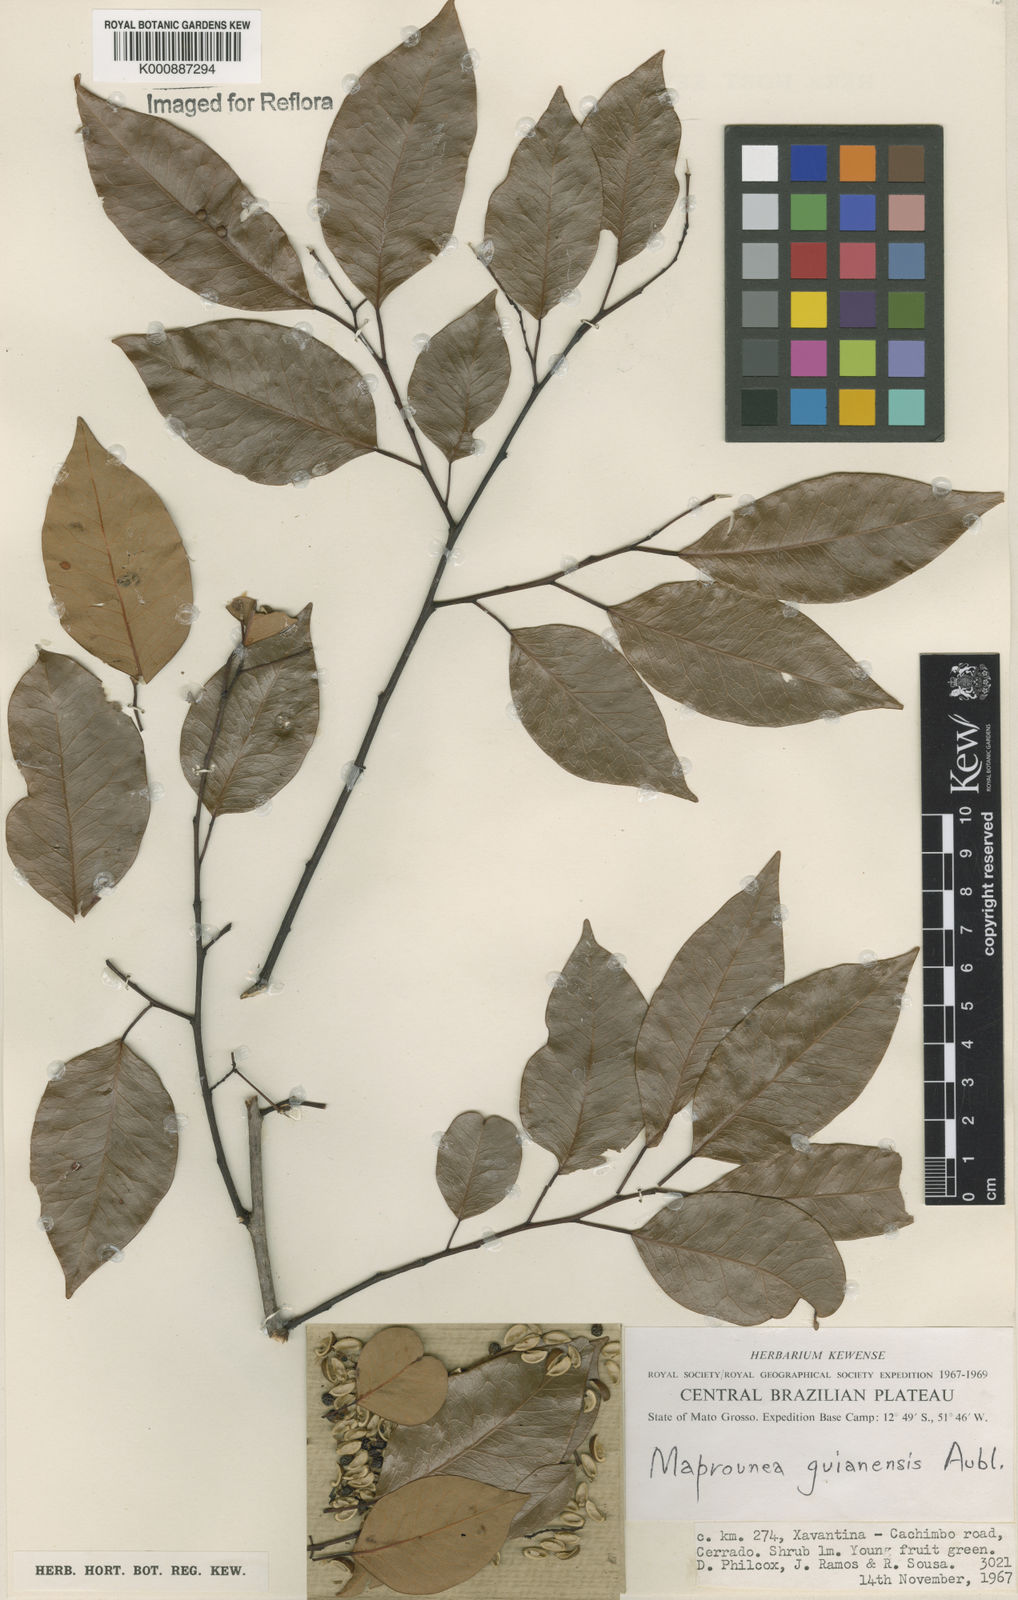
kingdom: Plantae
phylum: Tracheophyta
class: Magnoliopsida
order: Malpighiales
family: Euphorbiaceae
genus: Maprounea
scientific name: Maprounea guianensis
